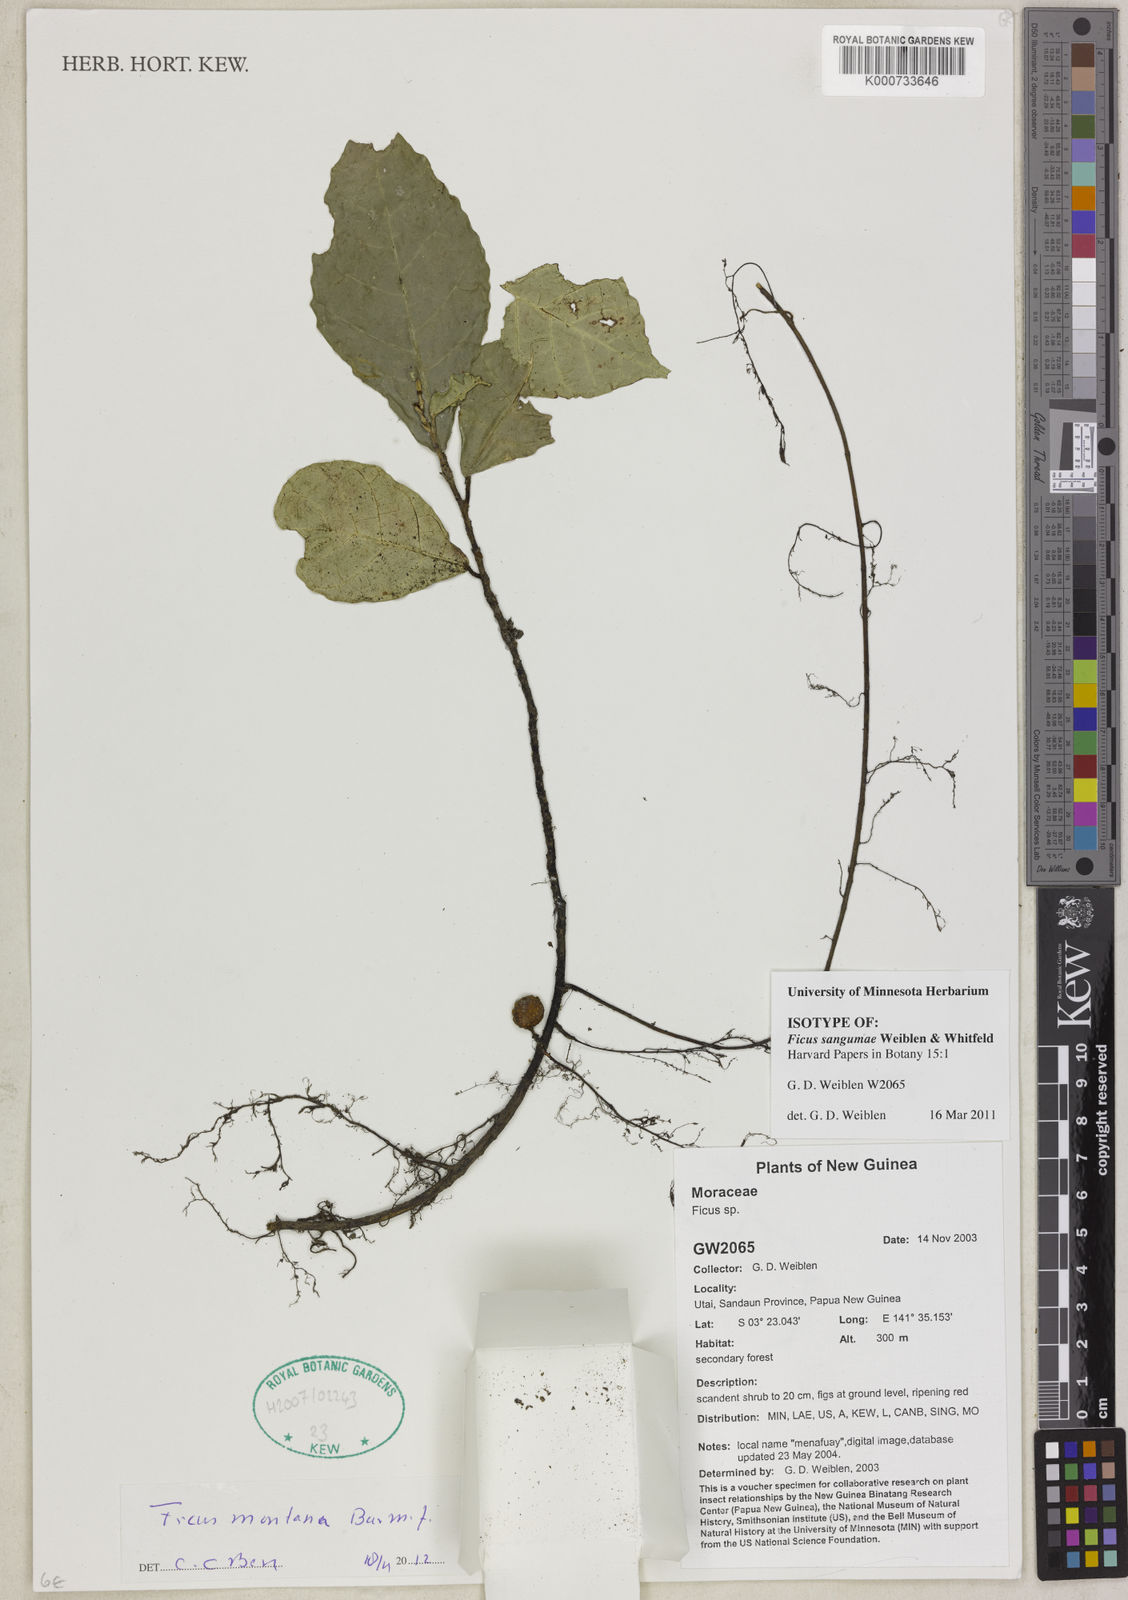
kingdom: Plantae
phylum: Tracheophyta
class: Magnoliopsida
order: Rosales
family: Moraceae
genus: Ficus
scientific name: Ficus montana
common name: Oak-leaf fig
